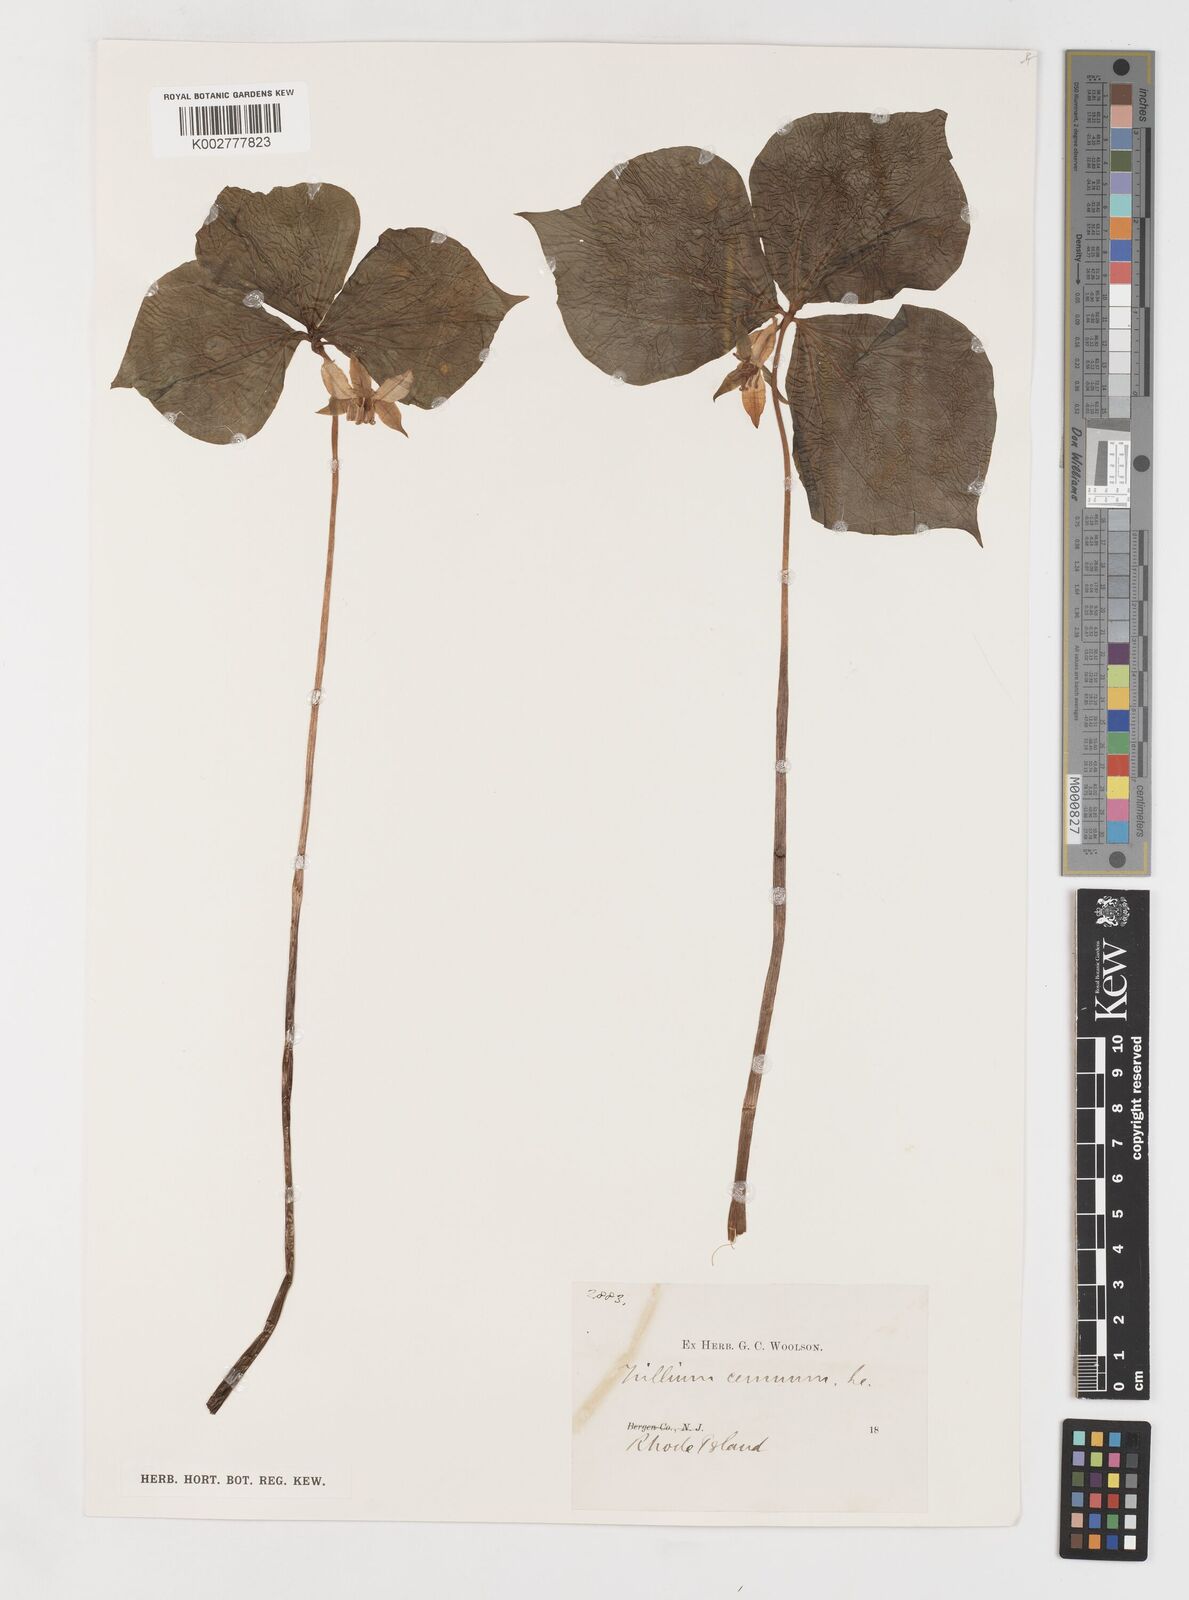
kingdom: Plantae
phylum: Tracheophyta
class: Liliopsida
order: Liliales
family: Melanthiaceae
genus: Trillium
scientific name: Trillium cernuum
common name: Nodding trillium
